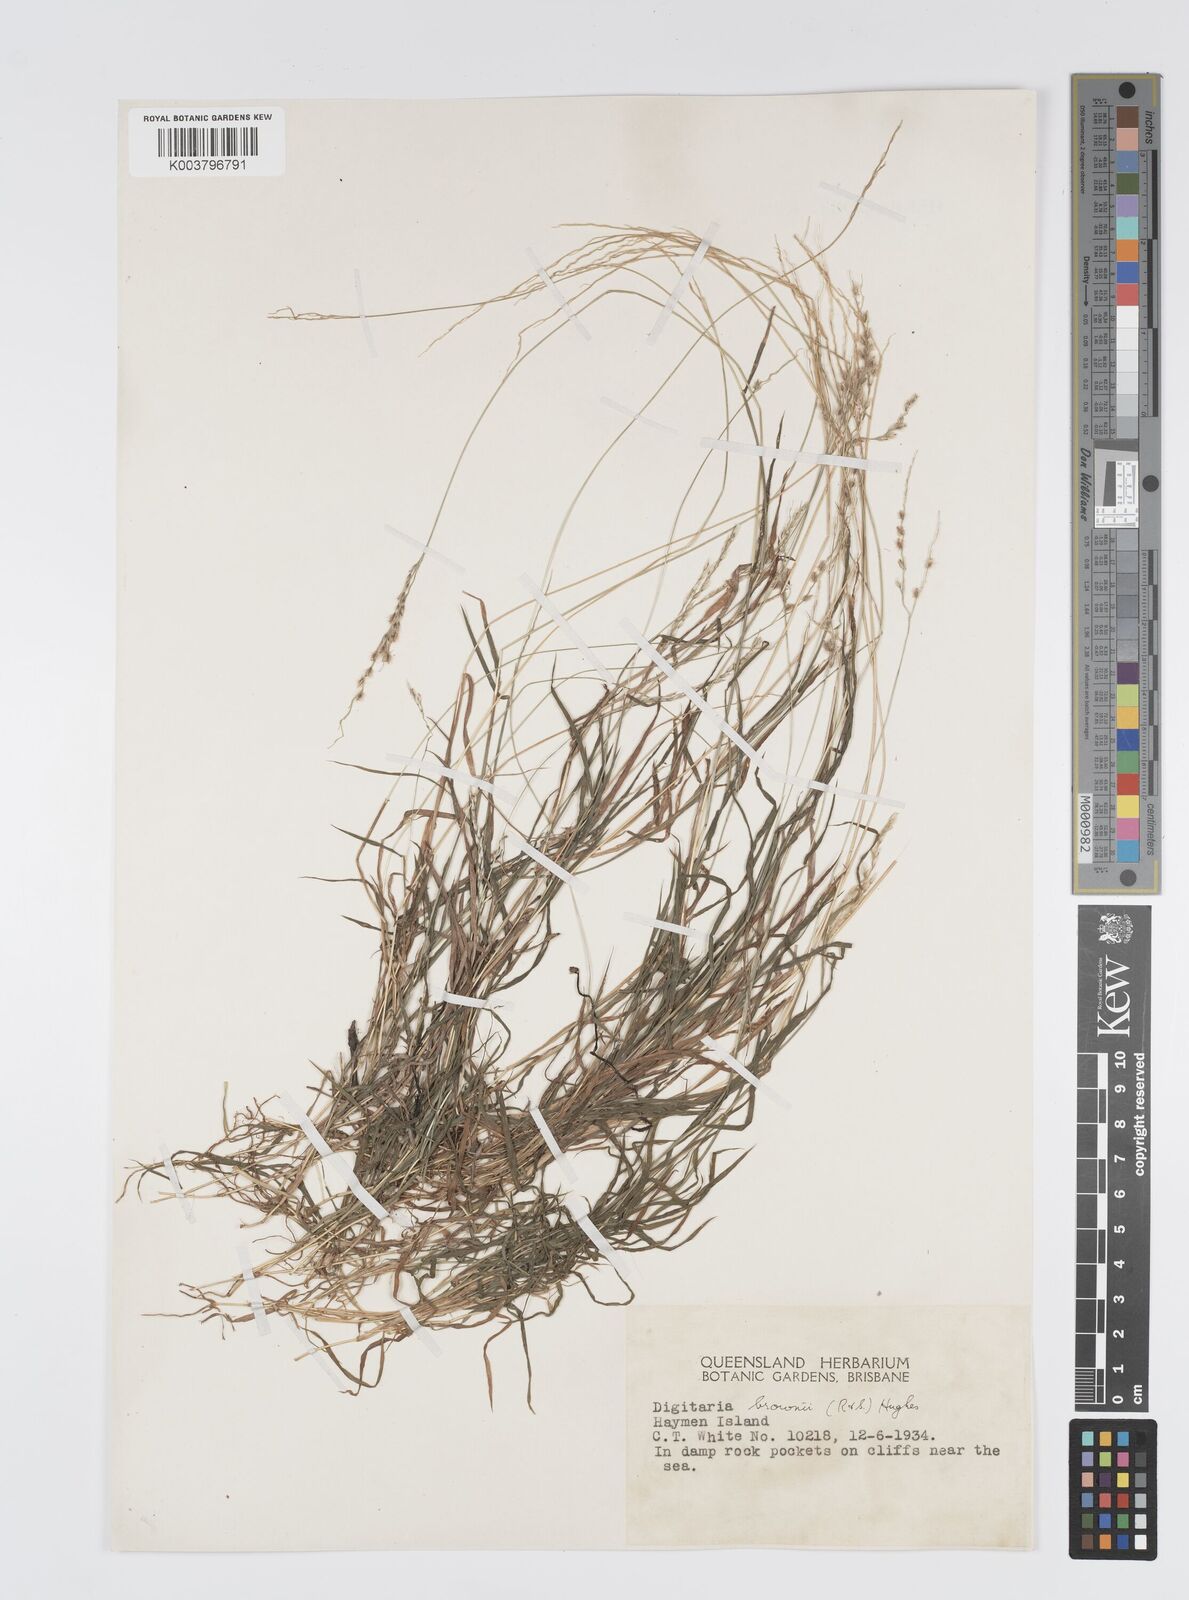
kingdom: Plantae
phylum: Tracheophyta
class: Liliopsida
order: Poales
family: Poaceae
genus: Digitaria
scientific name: Digitaria brownii
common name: Cotton grass
